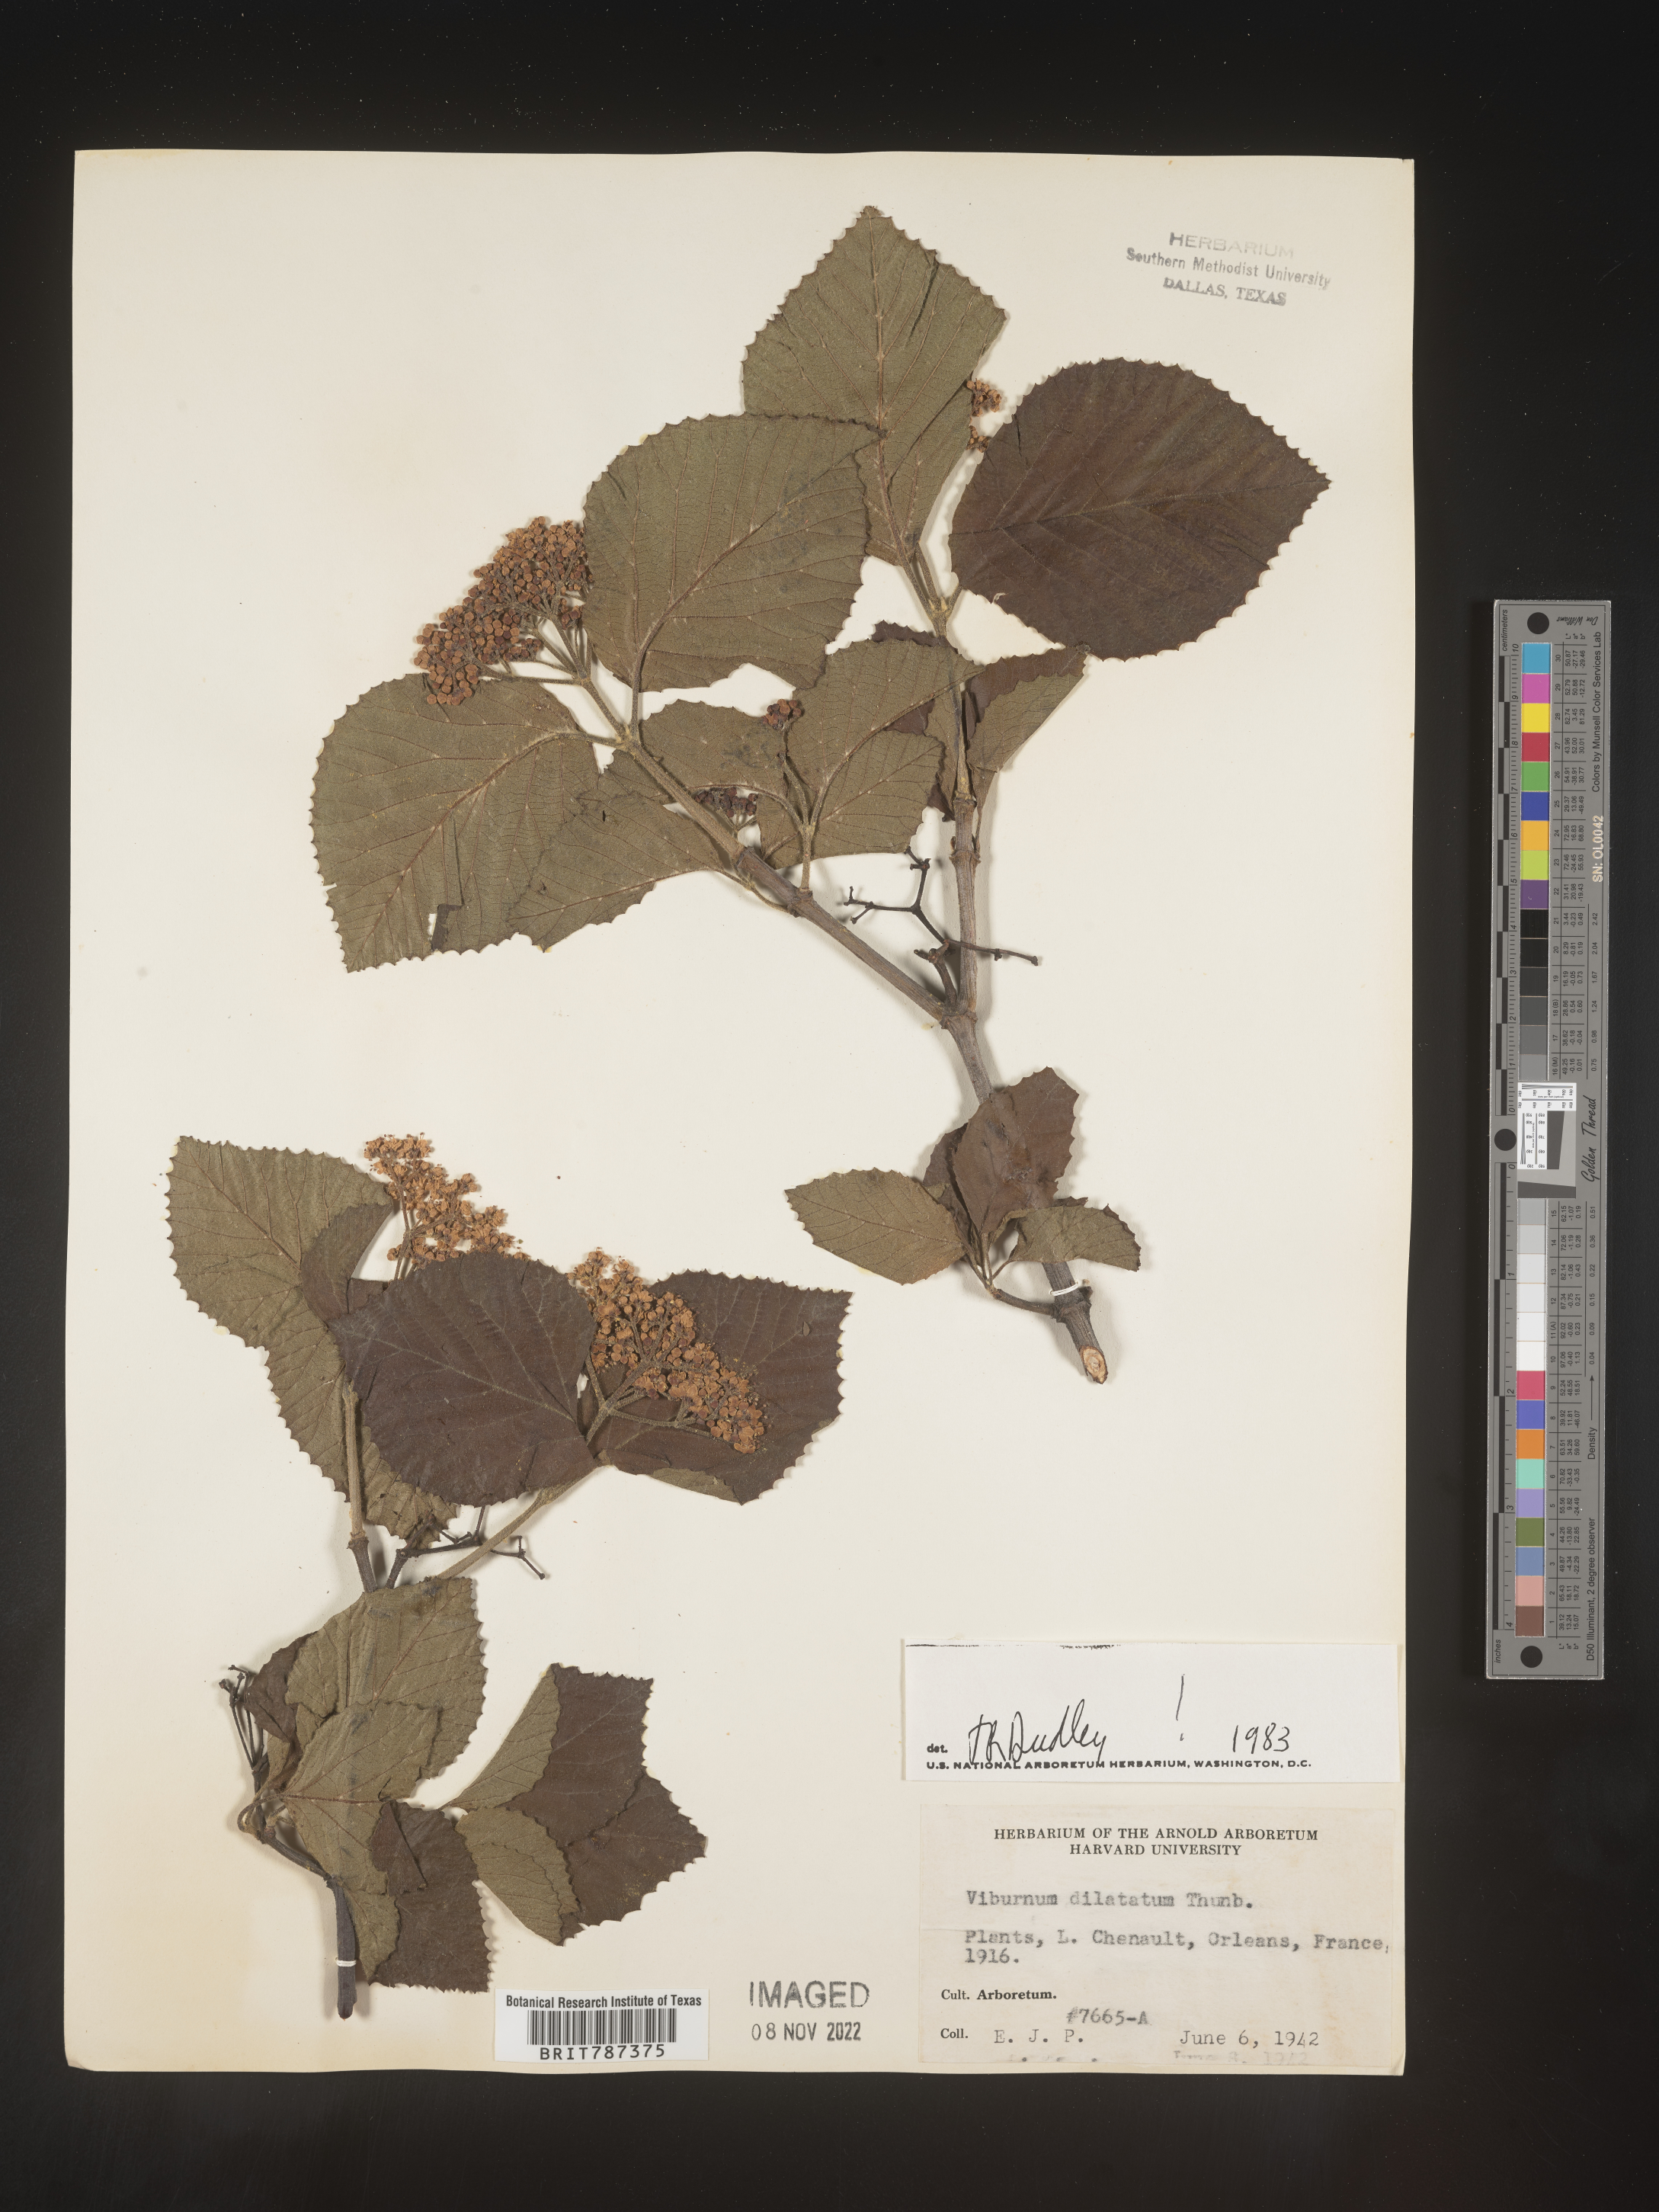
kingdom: Plantae
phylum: Tracheophyta
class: Magnoliopsida
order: Dipsacales
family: Viburnaceae
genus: Viburnum
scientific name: Viburnum
